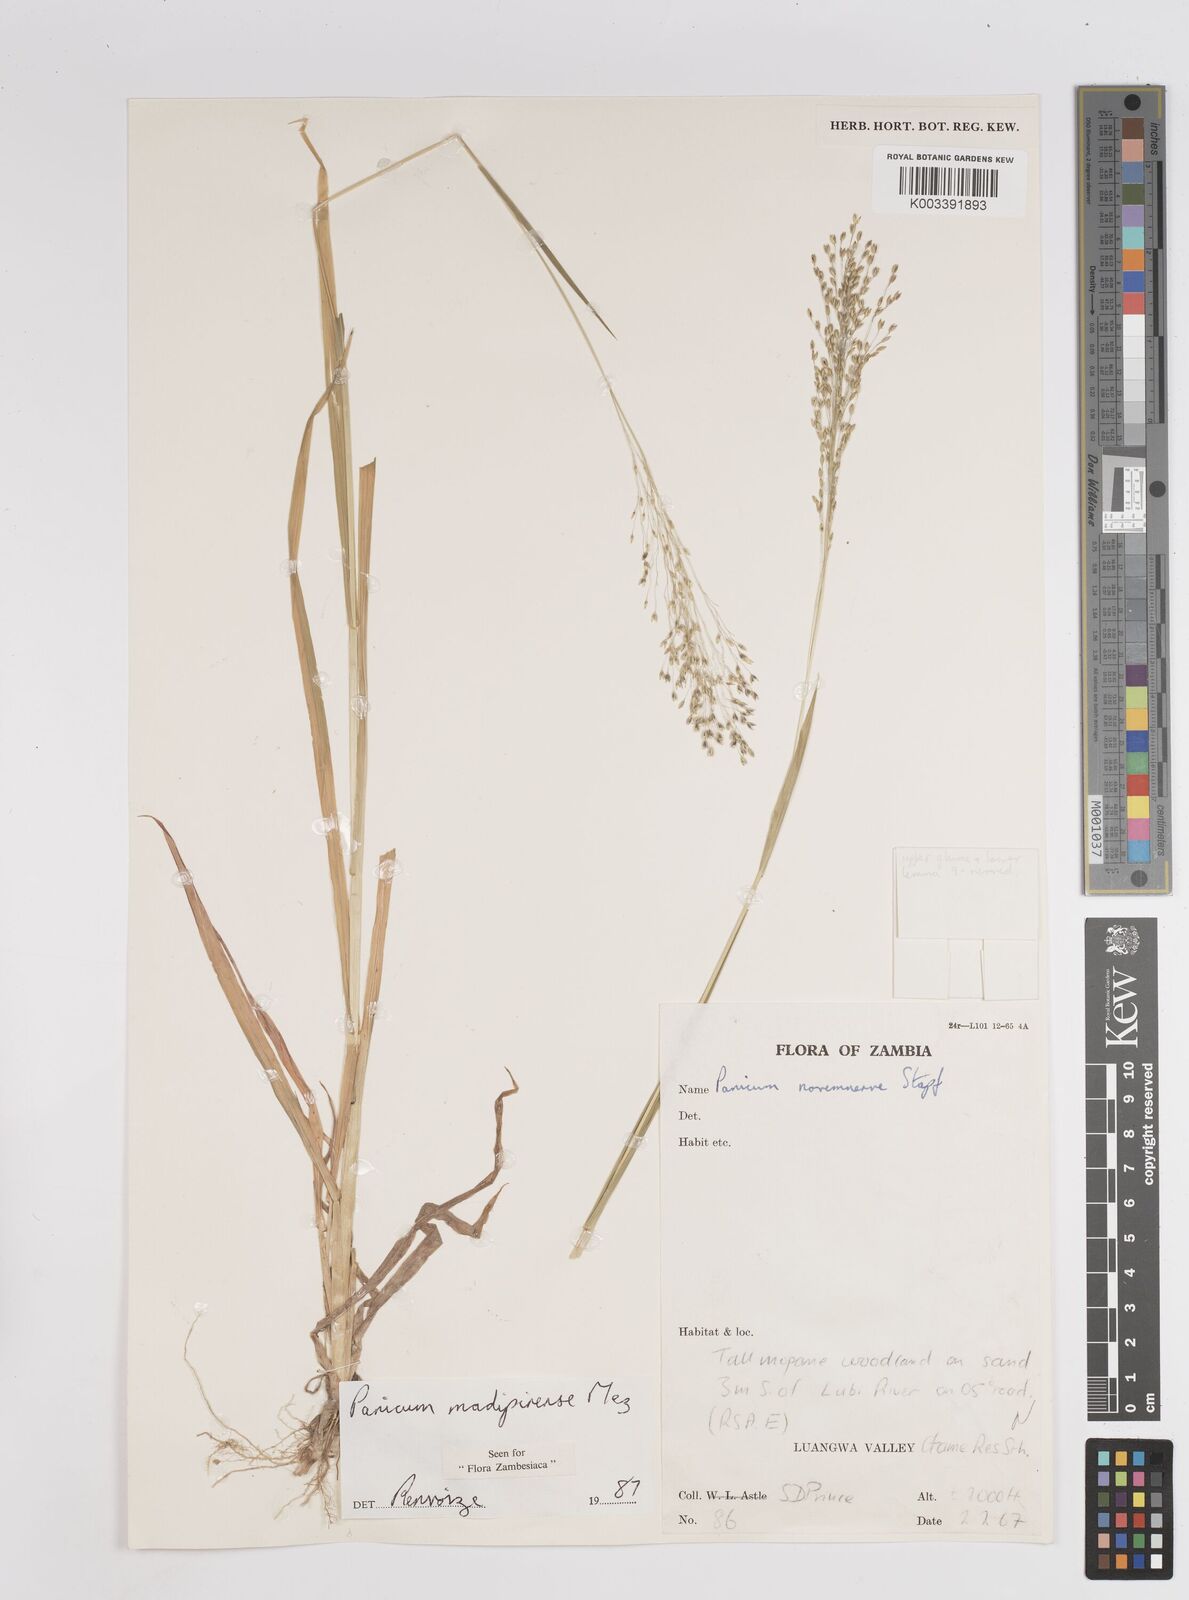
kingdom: Plantae
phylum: Tracheophyta
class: Liliopsida
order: Poales
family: Poaceae
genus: Panicum
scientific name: Panicum madipirense
